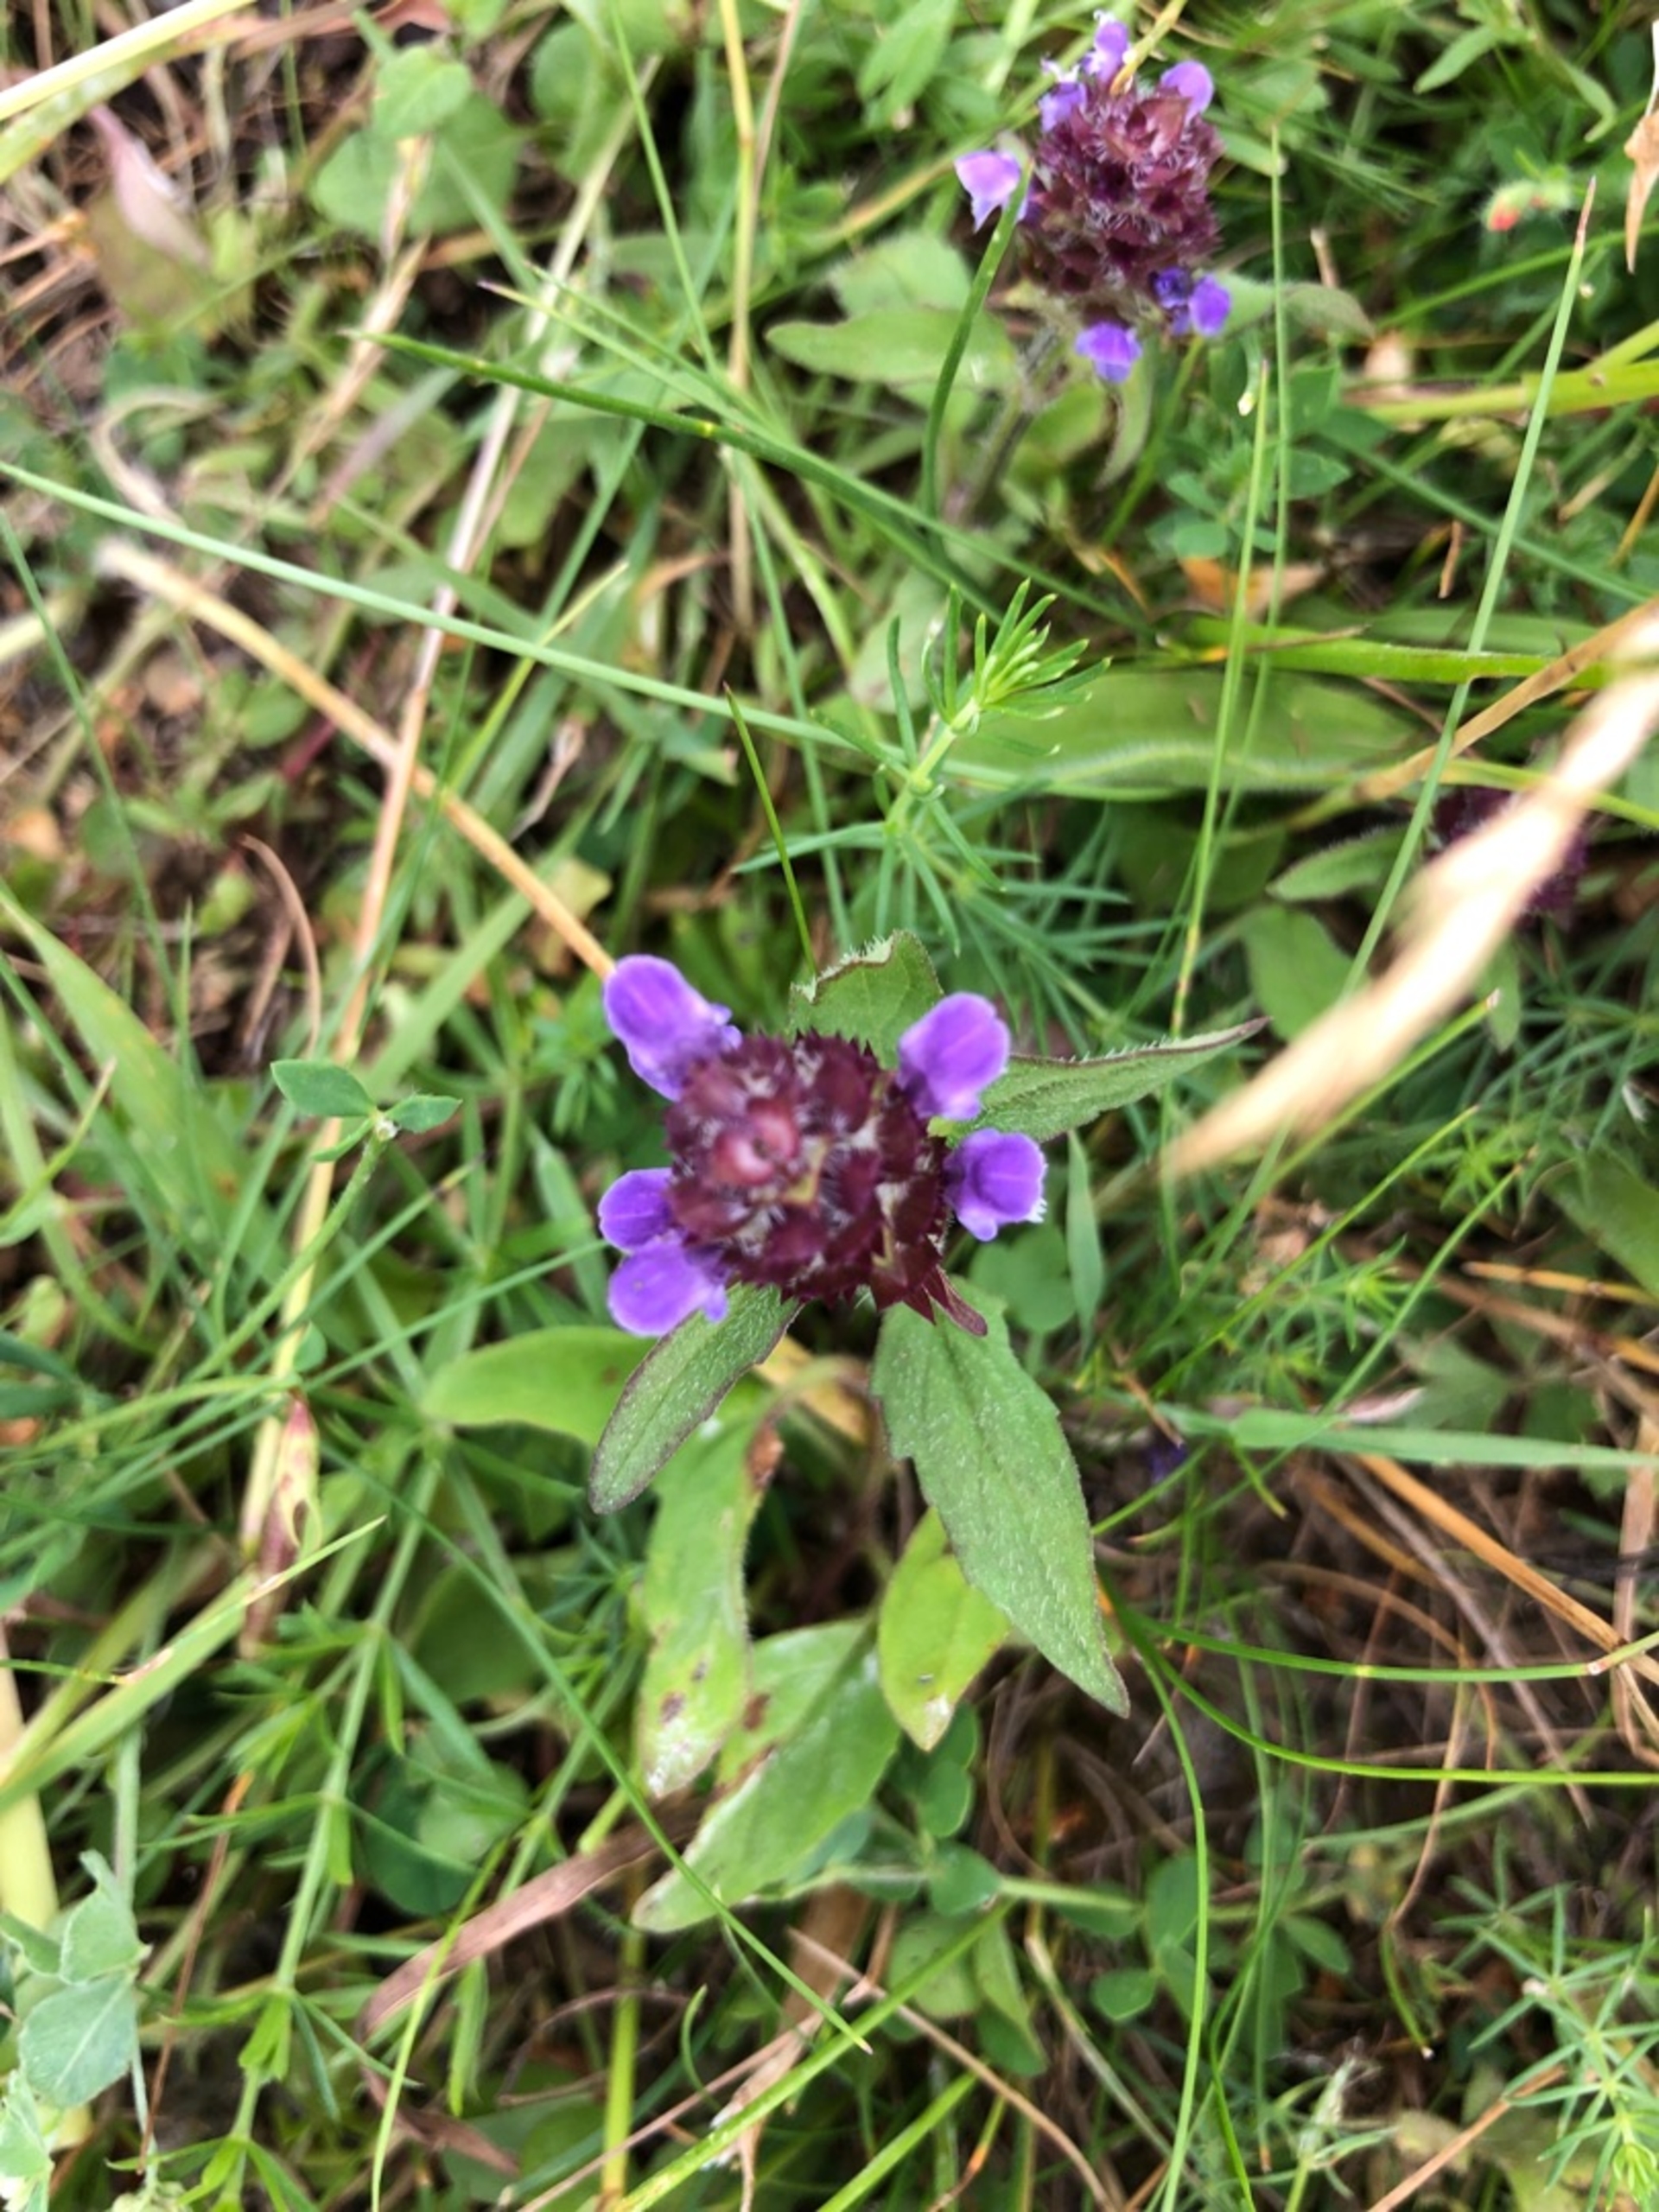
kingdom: Plantae
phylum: Tracheophyta
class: Magnoliopsida
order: Lamiales
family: Lamiaceae
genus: Prunella
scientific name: Prunella vulgaris
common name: Almindelig brunelle
